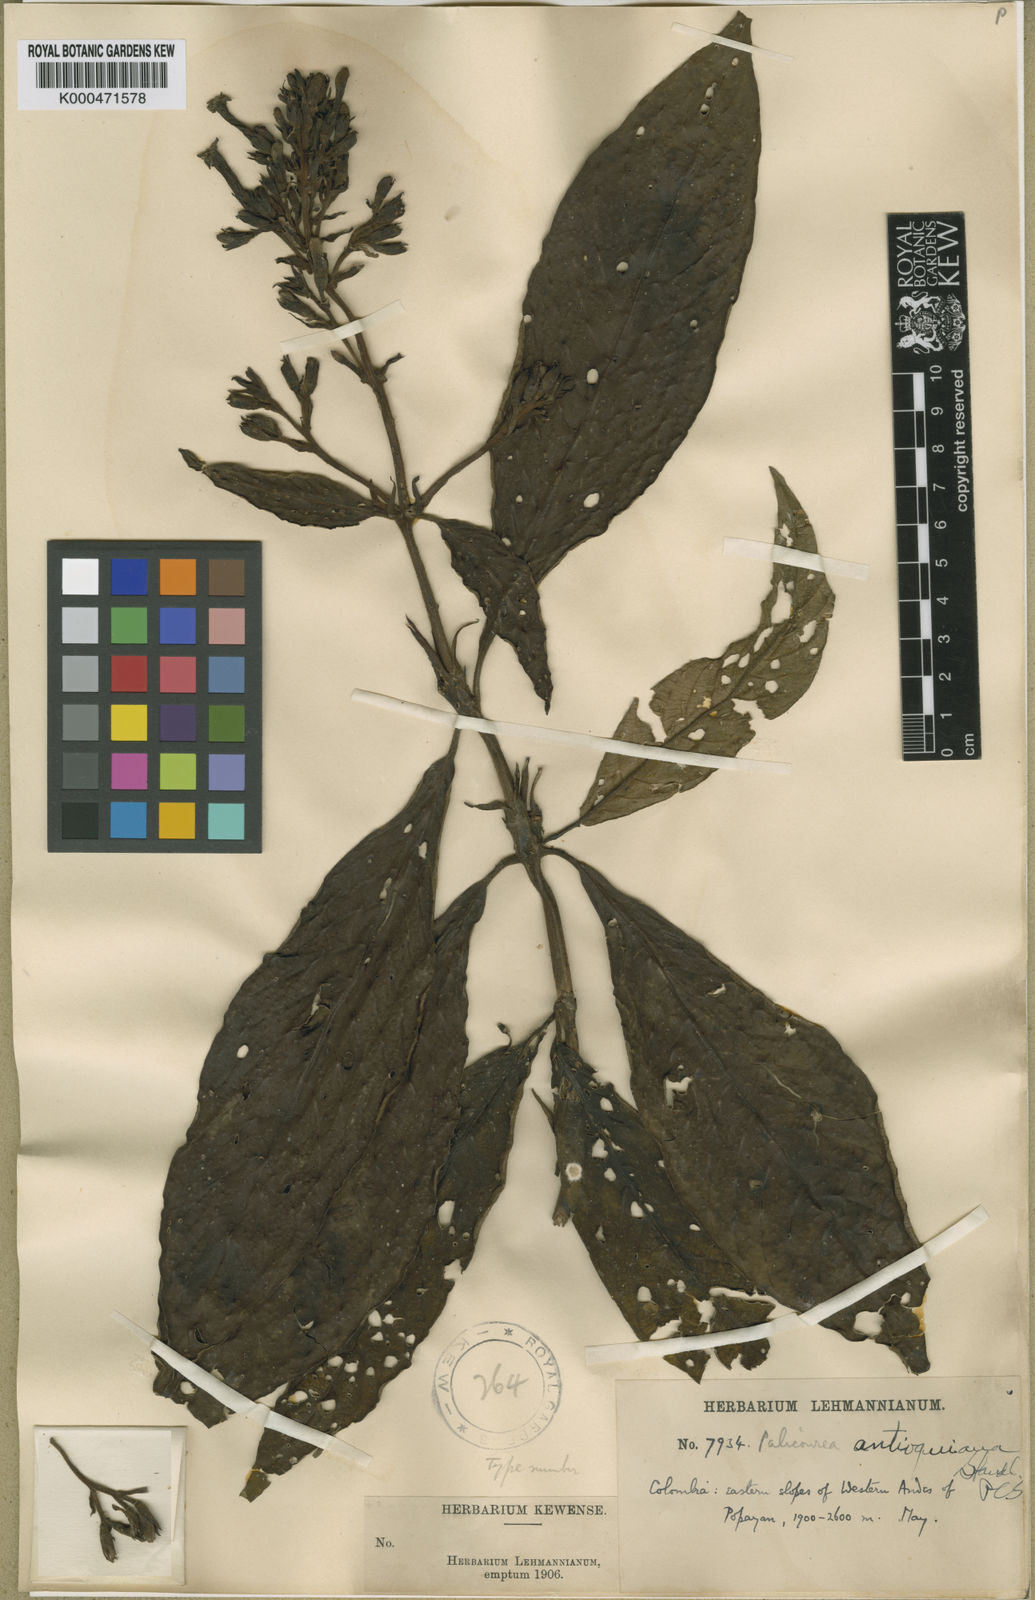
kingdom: Plantae
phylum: Tracheophyta
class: Magnoliopsida
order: Gentianales
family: Rubiaceae
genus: Palicourea
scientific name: Palicourea antioquiana
